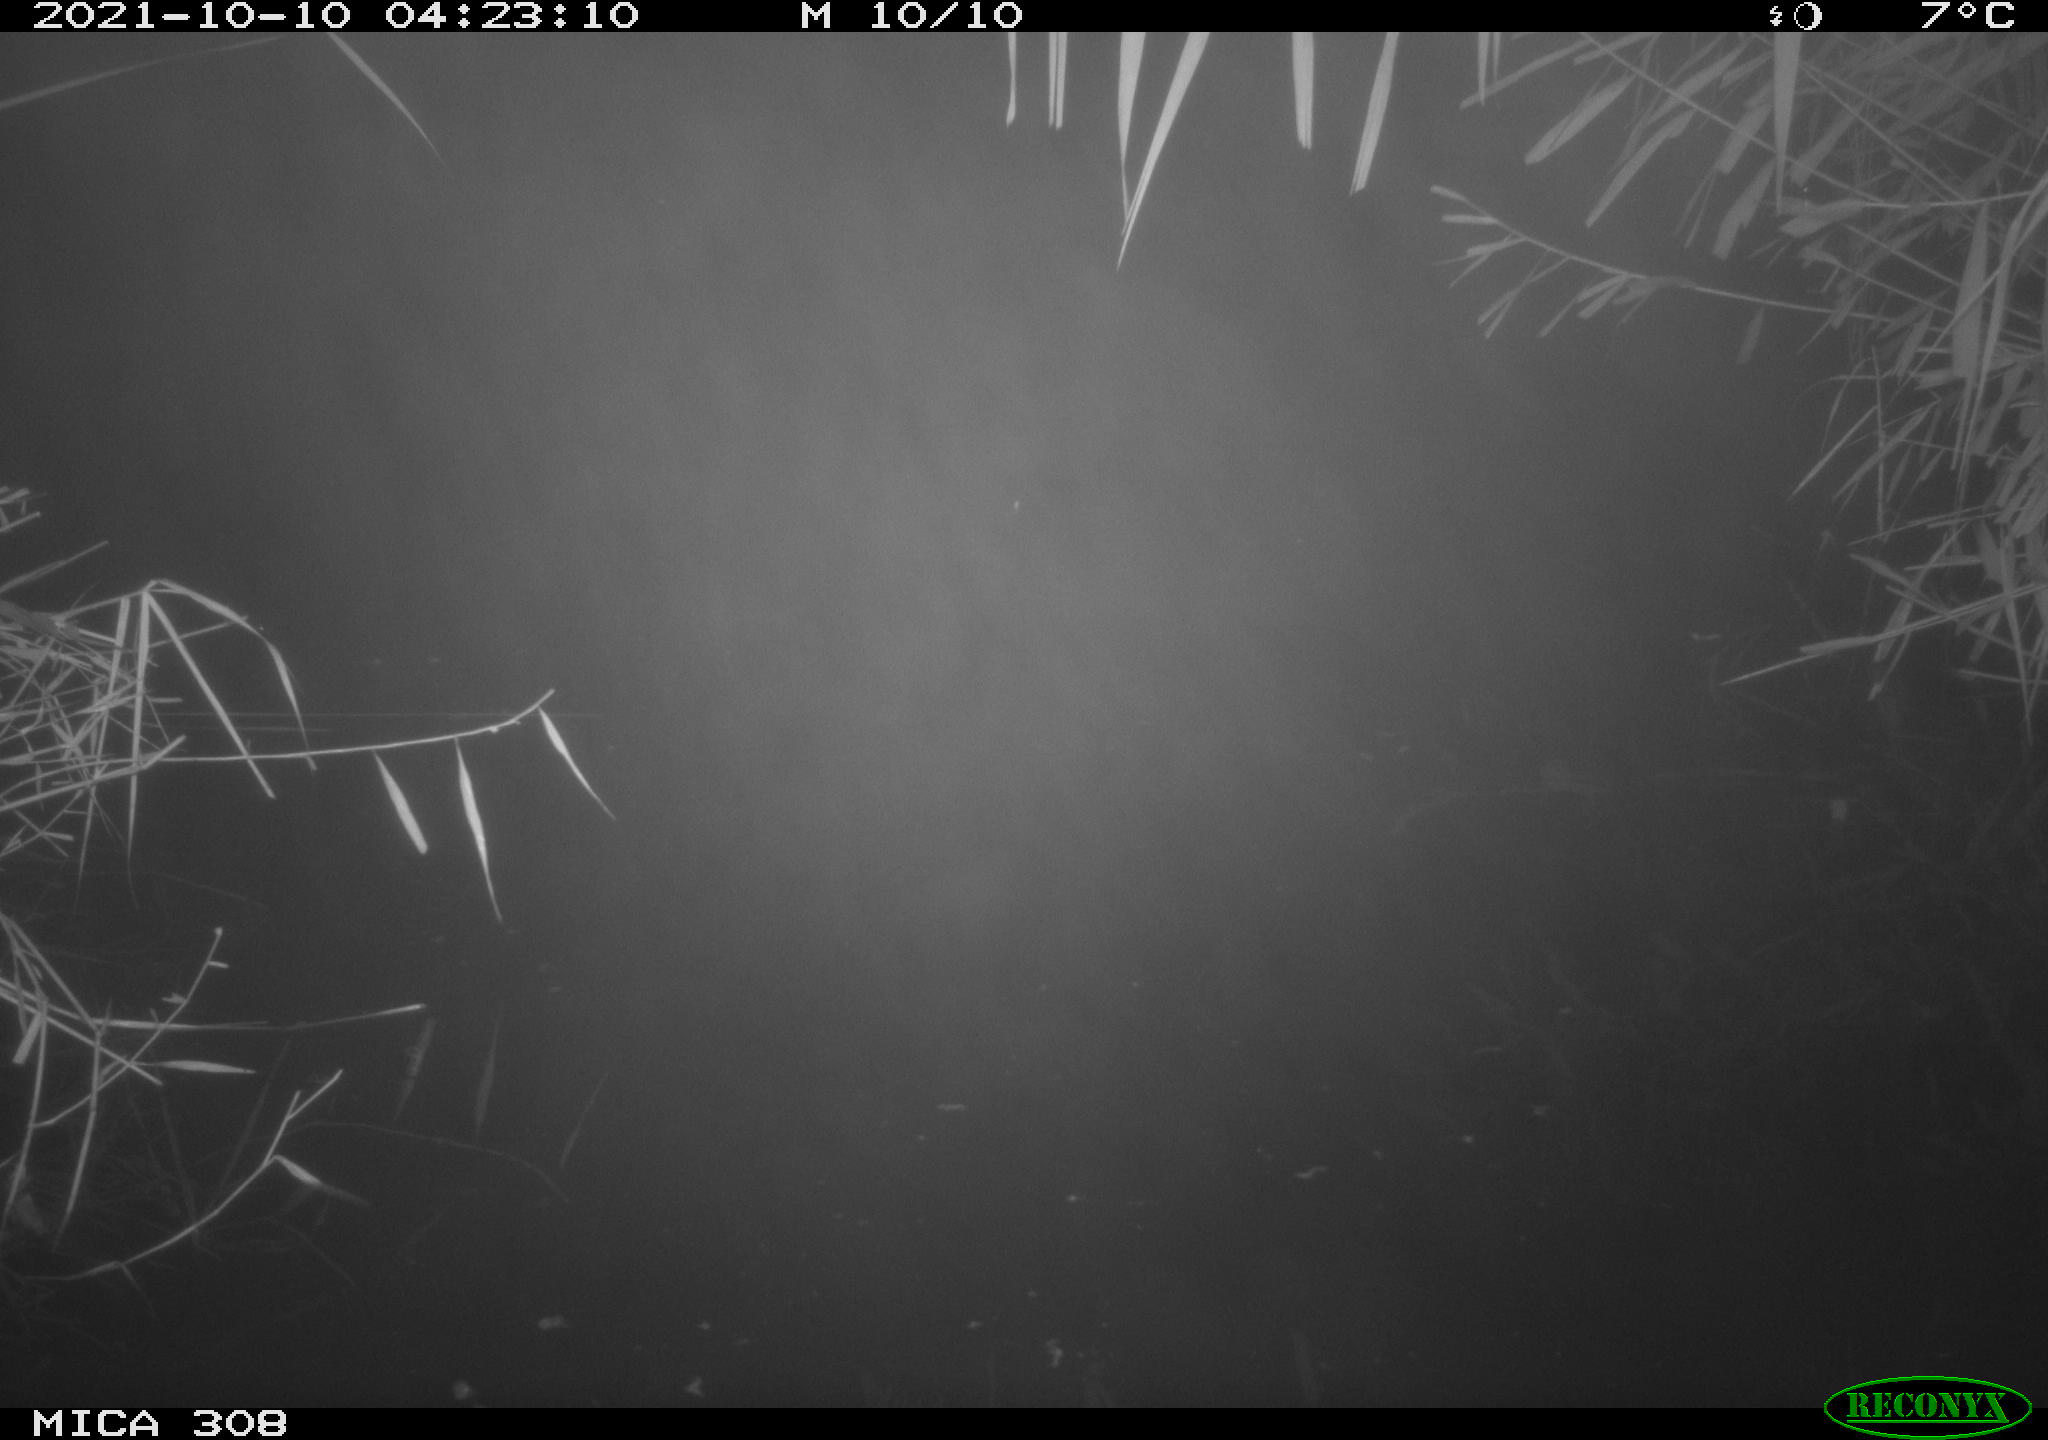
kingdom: Animalia
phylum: Chordata
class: Aves
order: Anseriformes
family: Anatidae
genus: Spatula
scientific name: Spatula clypeata
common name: Northern shoveler
